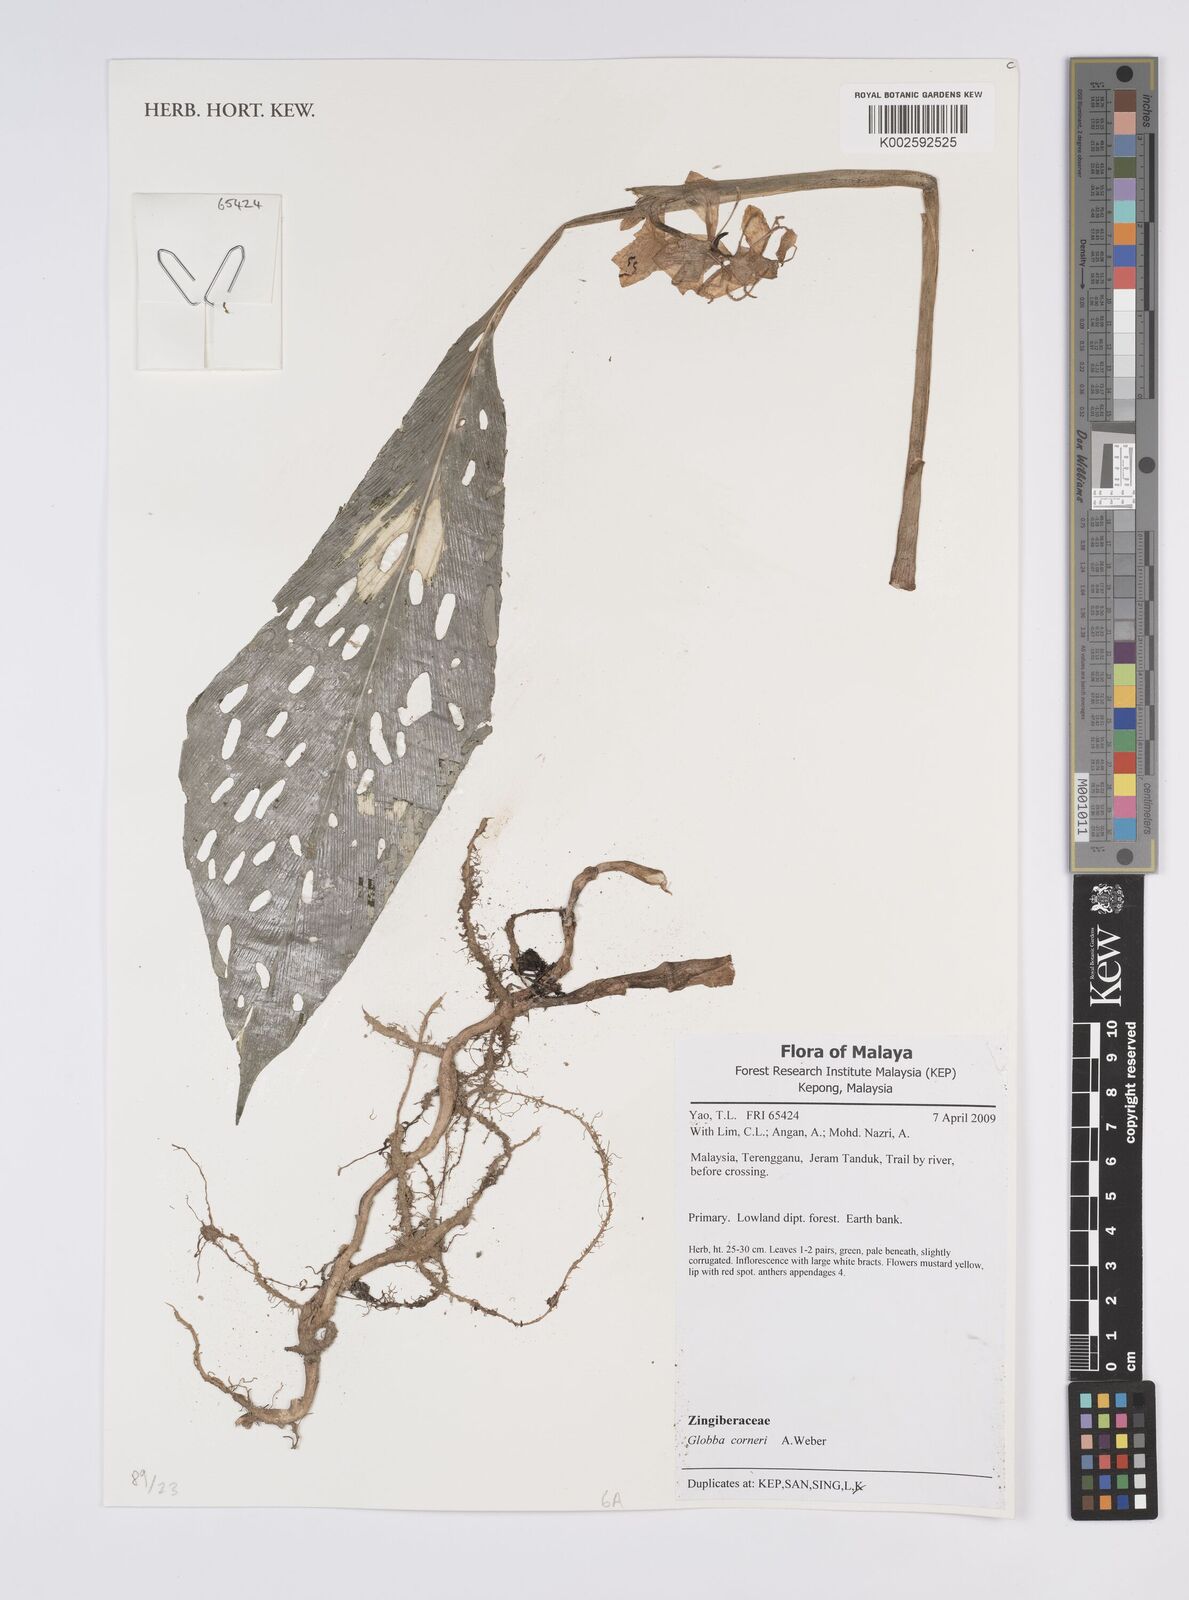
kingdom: Plantae
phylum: Tracheophyta
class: Liliopsida
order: Zingiberales
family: Zingiberaceae
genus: Globba
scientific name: Globba corneri
